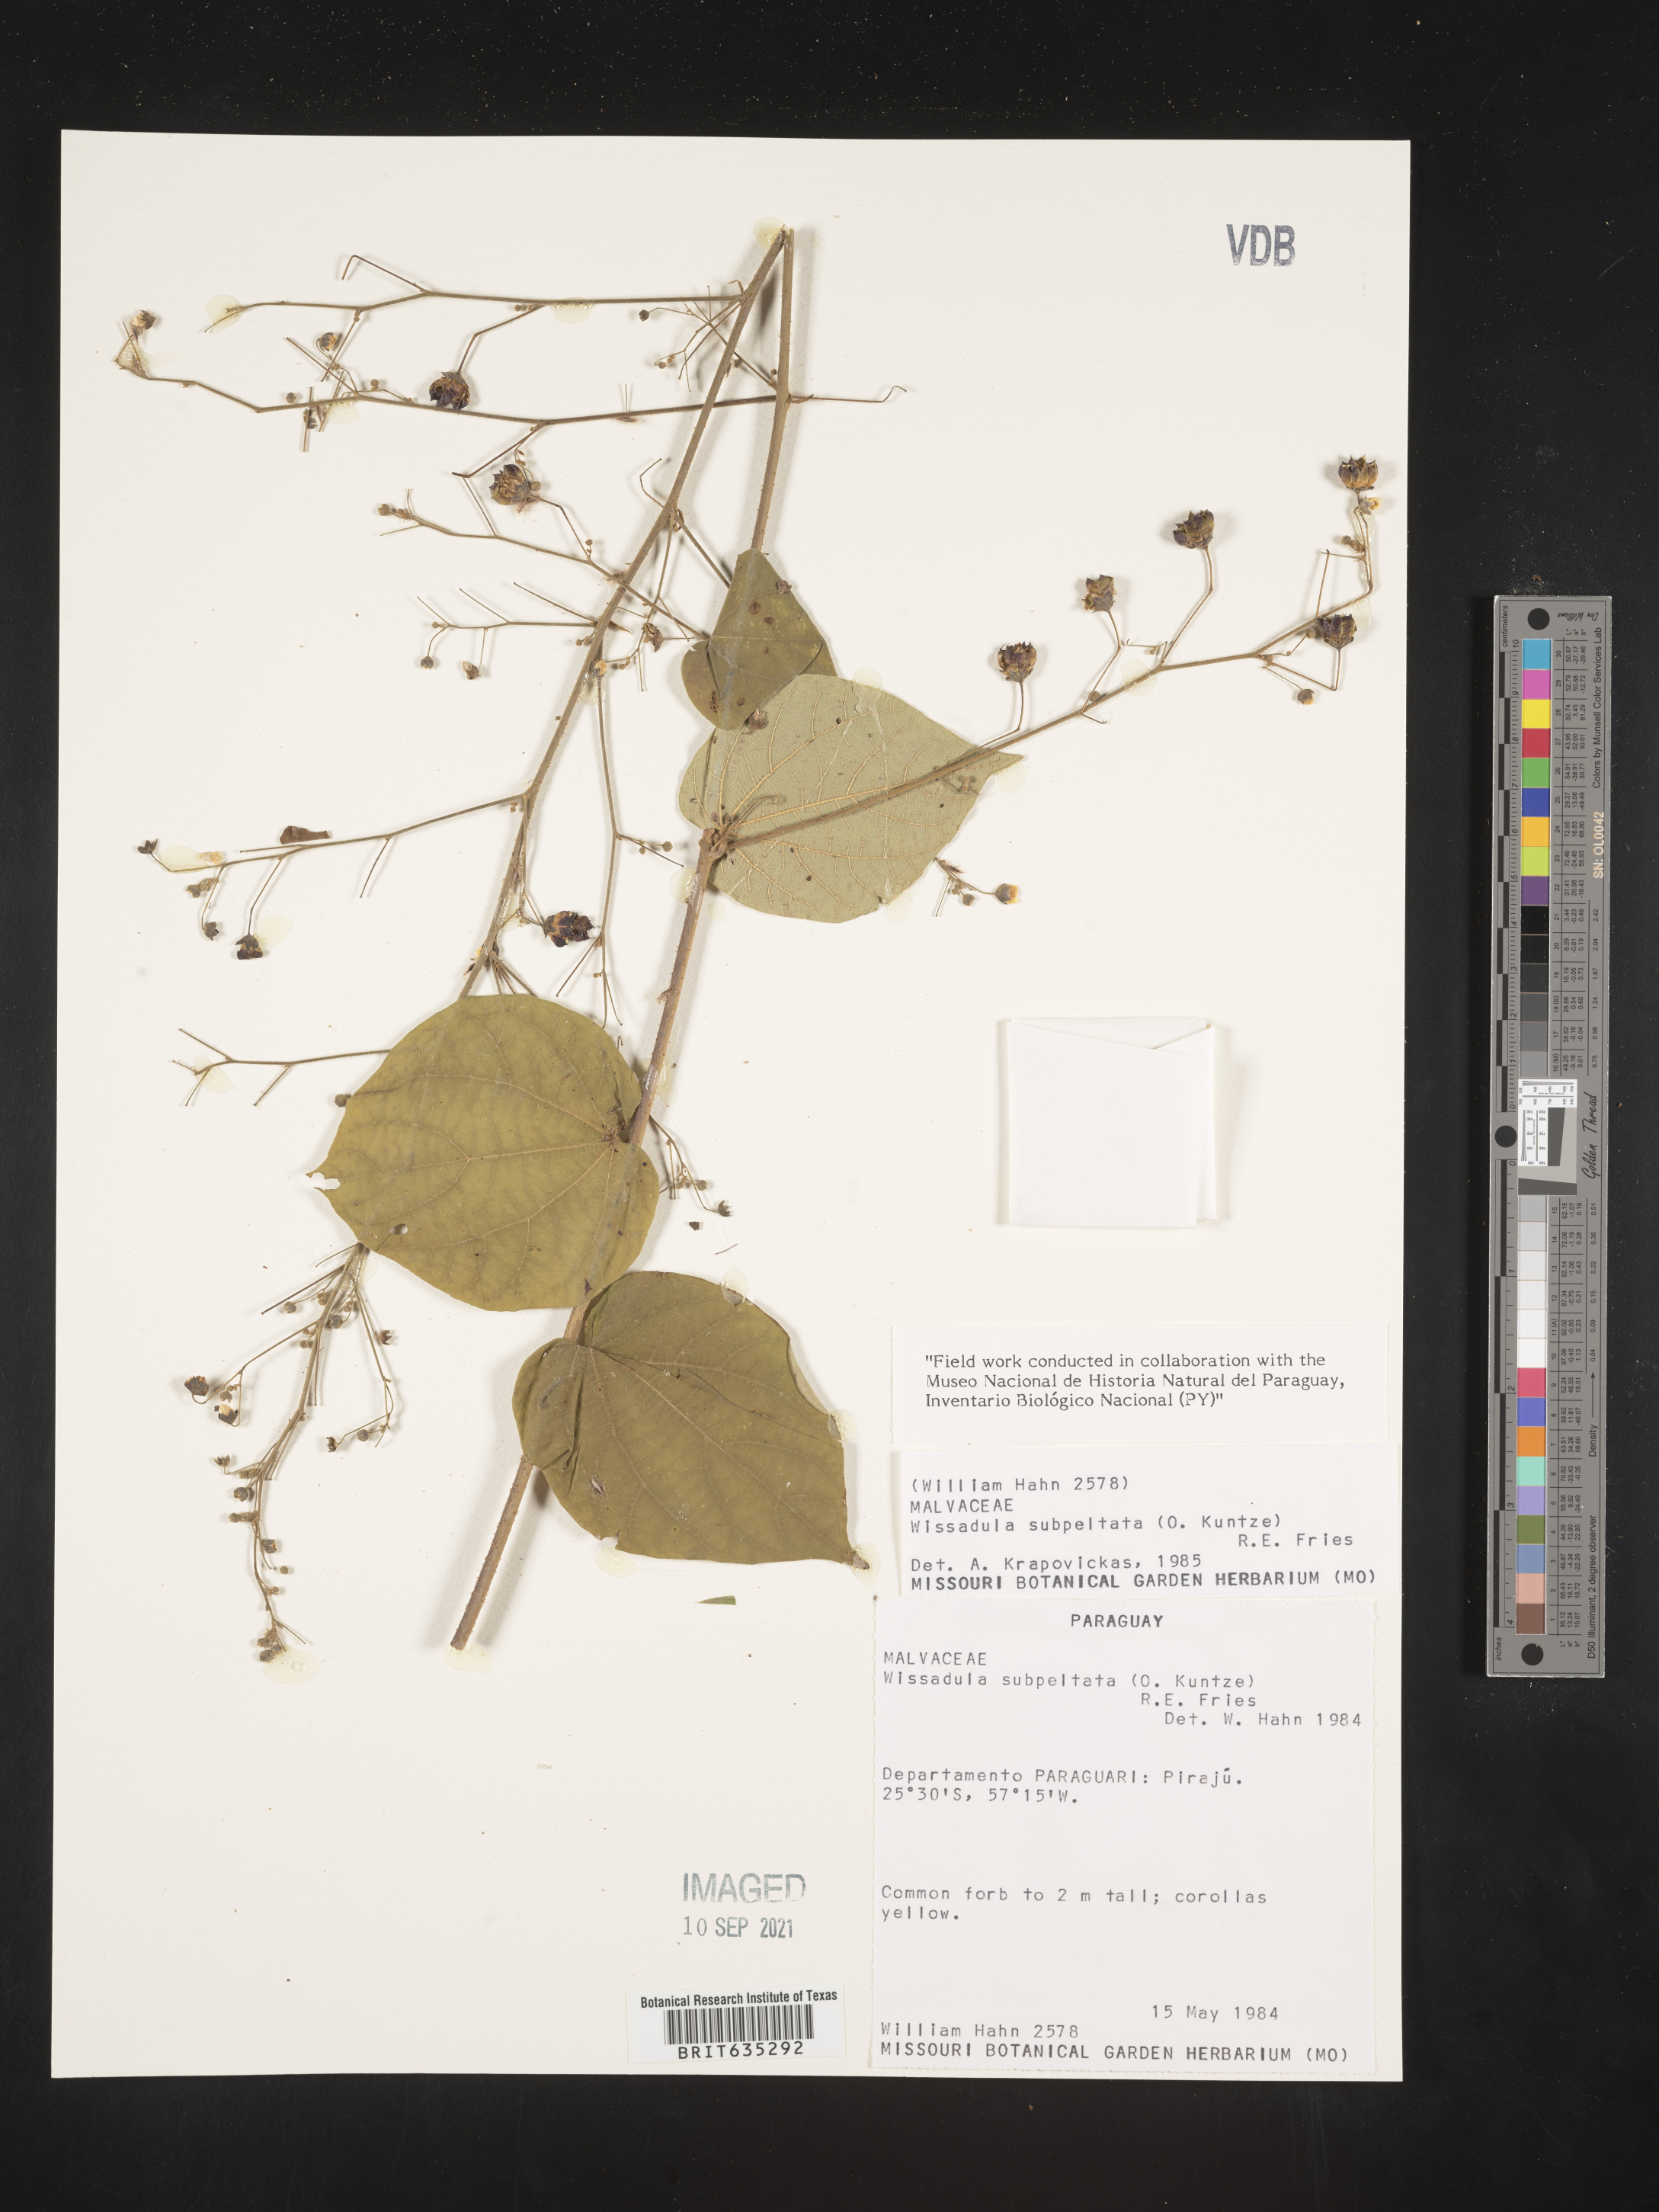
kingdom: Plantae
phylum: Tracheophyta
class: Magnoliopsida
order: Malvales
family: Malvaceae
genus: Wissadula
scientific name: Wissadula
